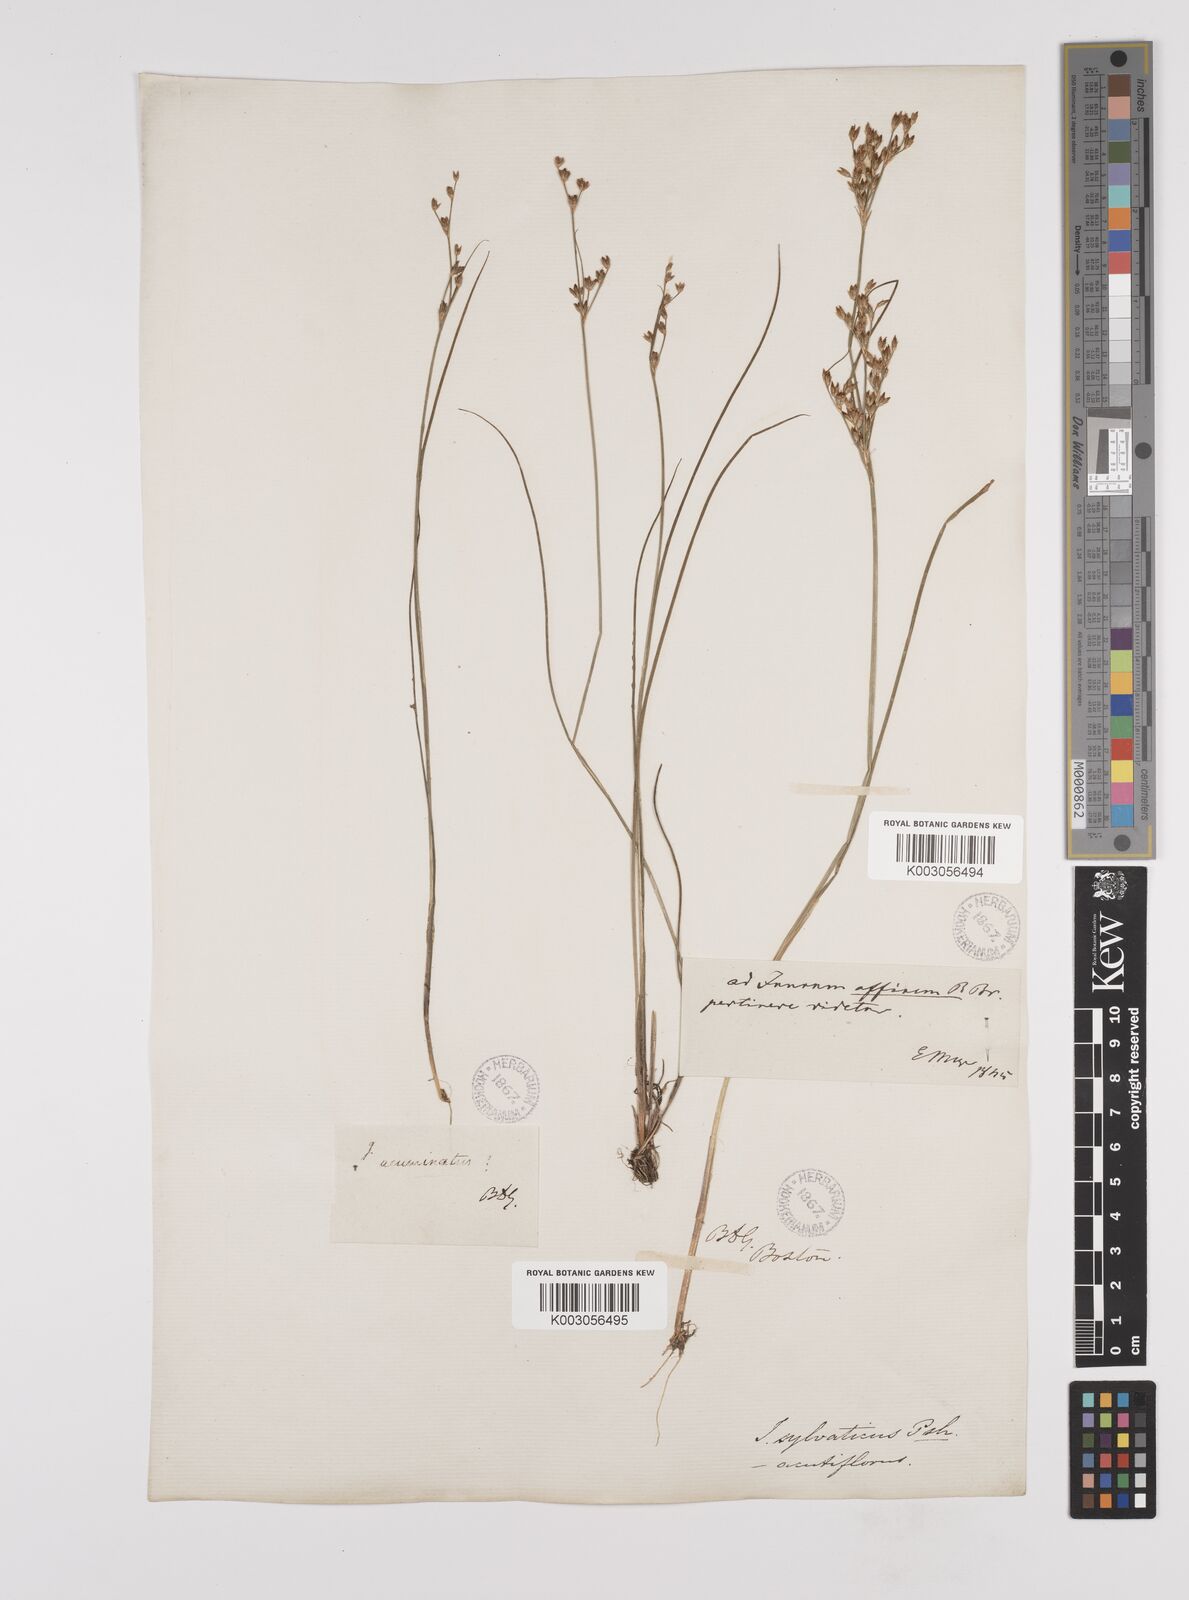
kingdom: Plantae
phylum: Tracheophyta
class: Liliopsida
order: Poales
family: Juncaceae
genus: Juncus
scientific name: Juncus dichotomus
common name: Forked rush
